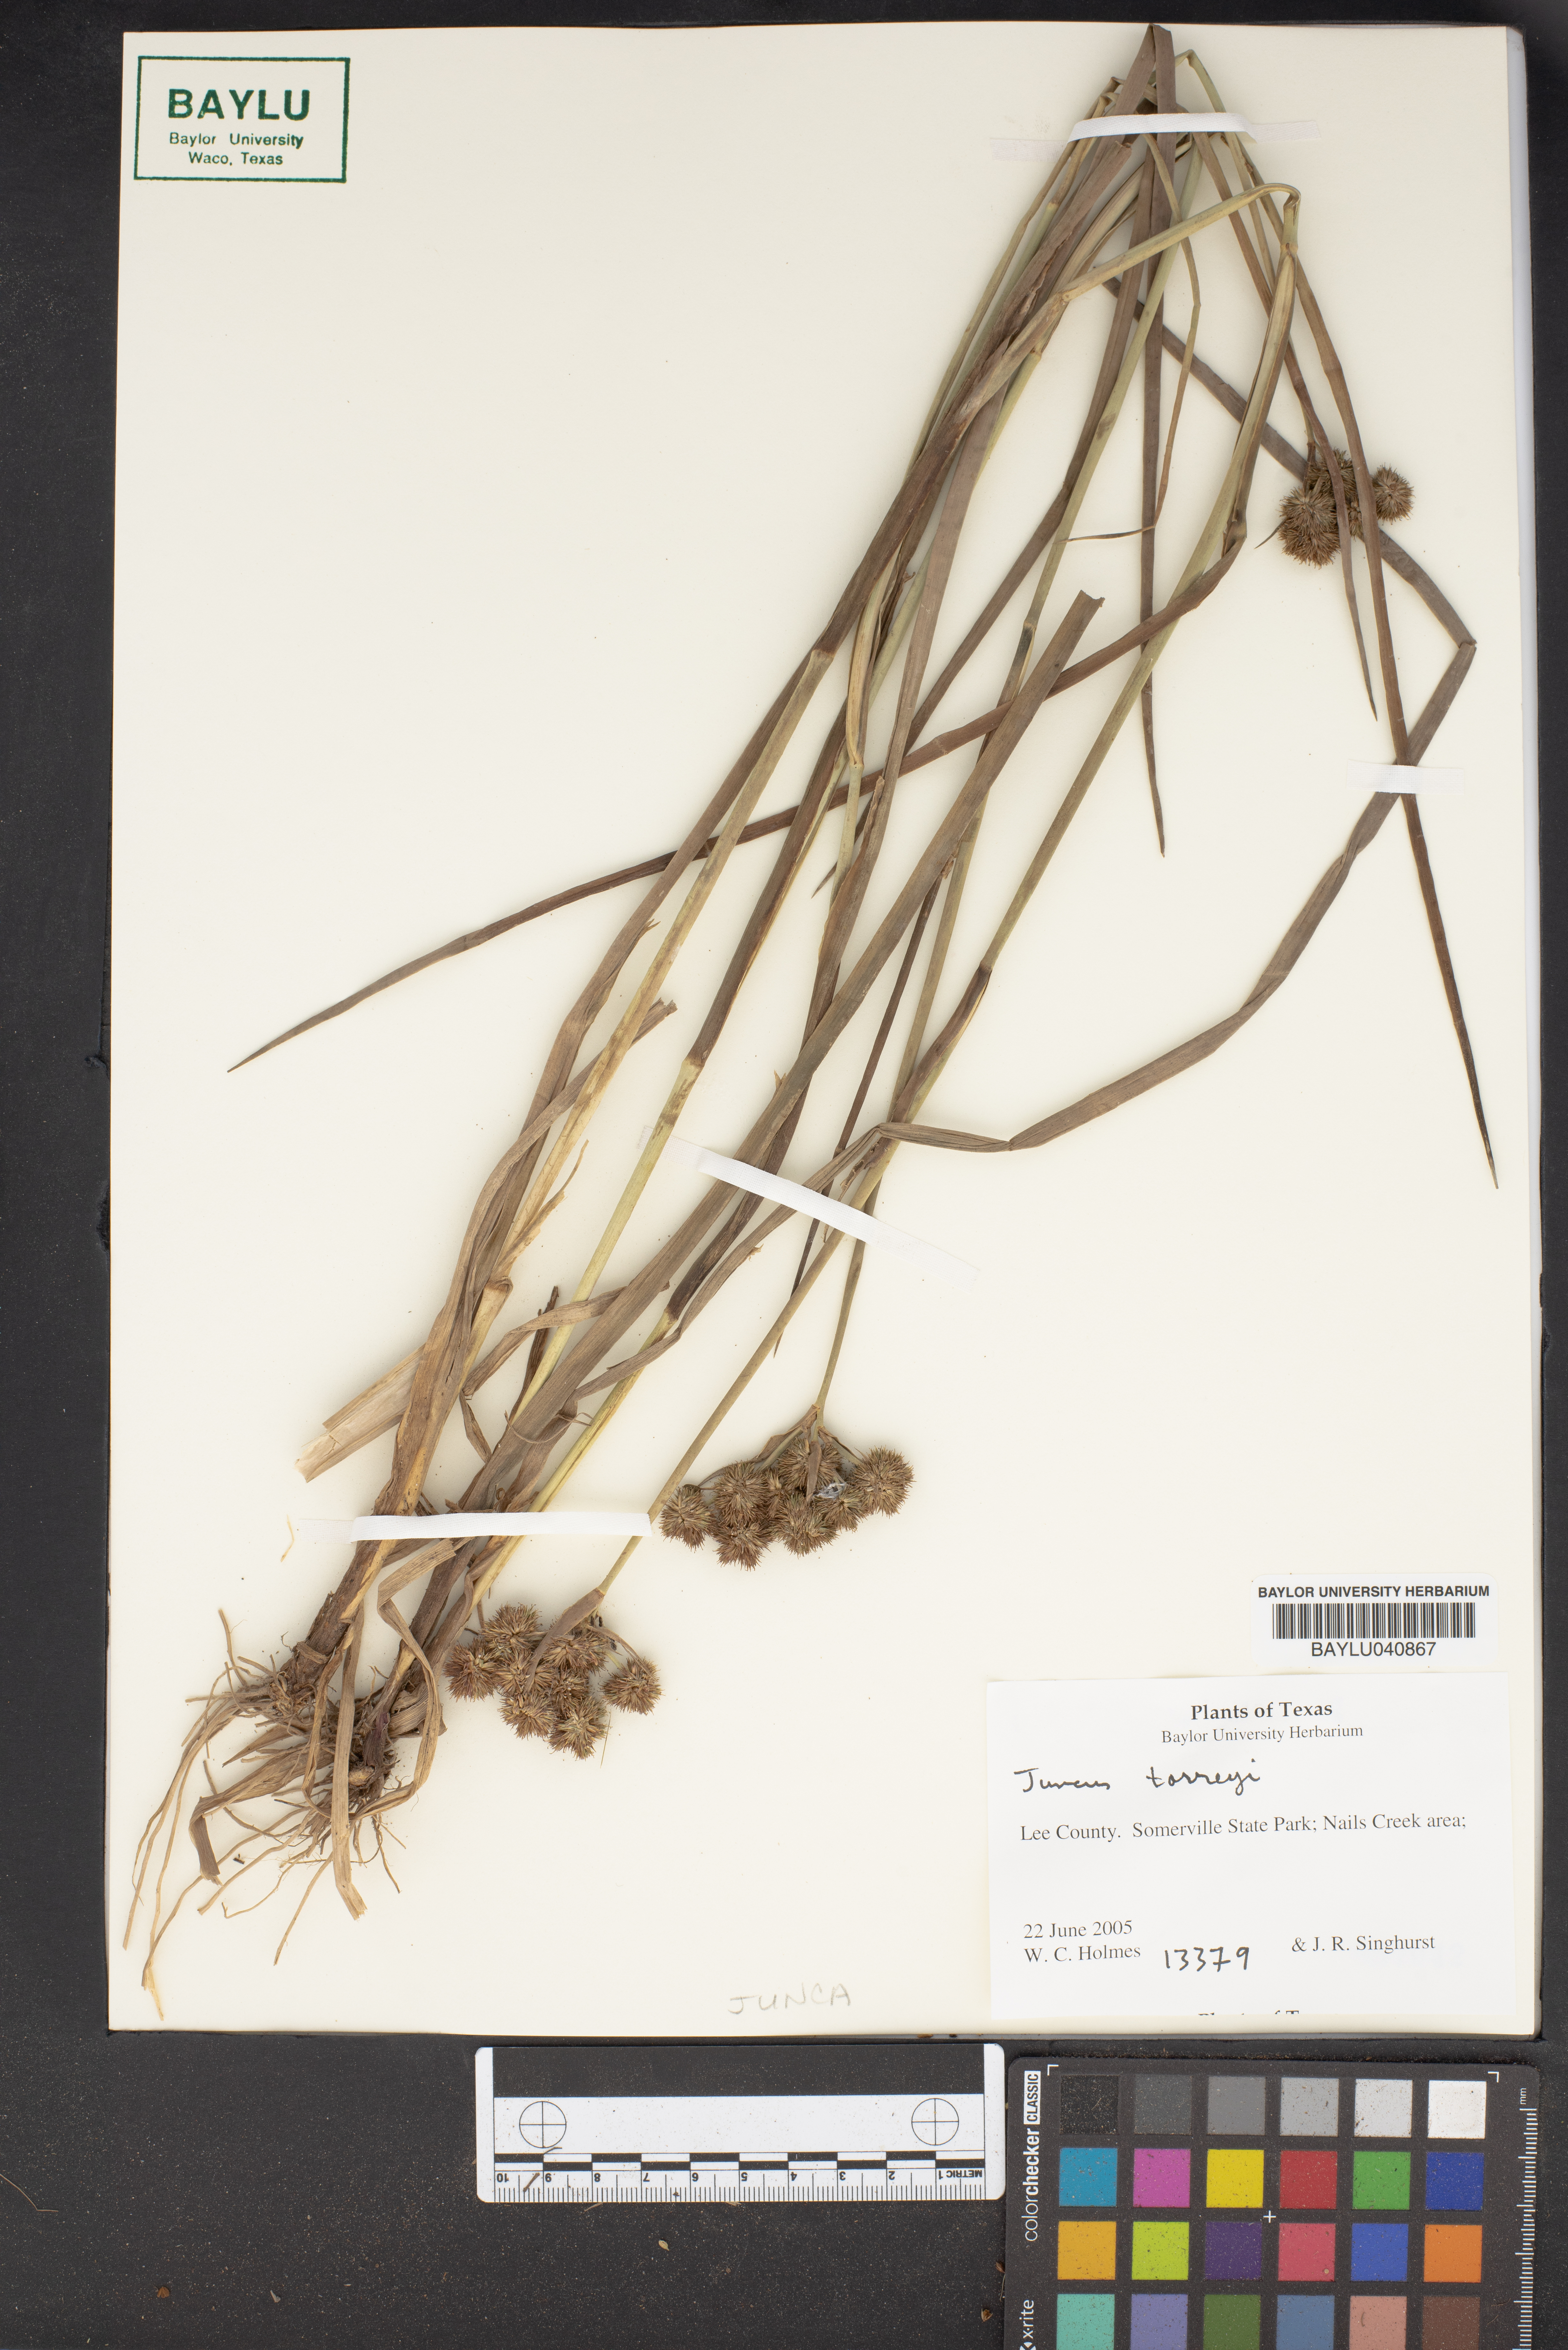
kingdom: Plantae
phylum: Tracheophyta
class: Liliopsida
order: Poales
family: Juncaceae
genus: Juncus
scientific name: Juncus torreyi
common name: Torrey's rush
